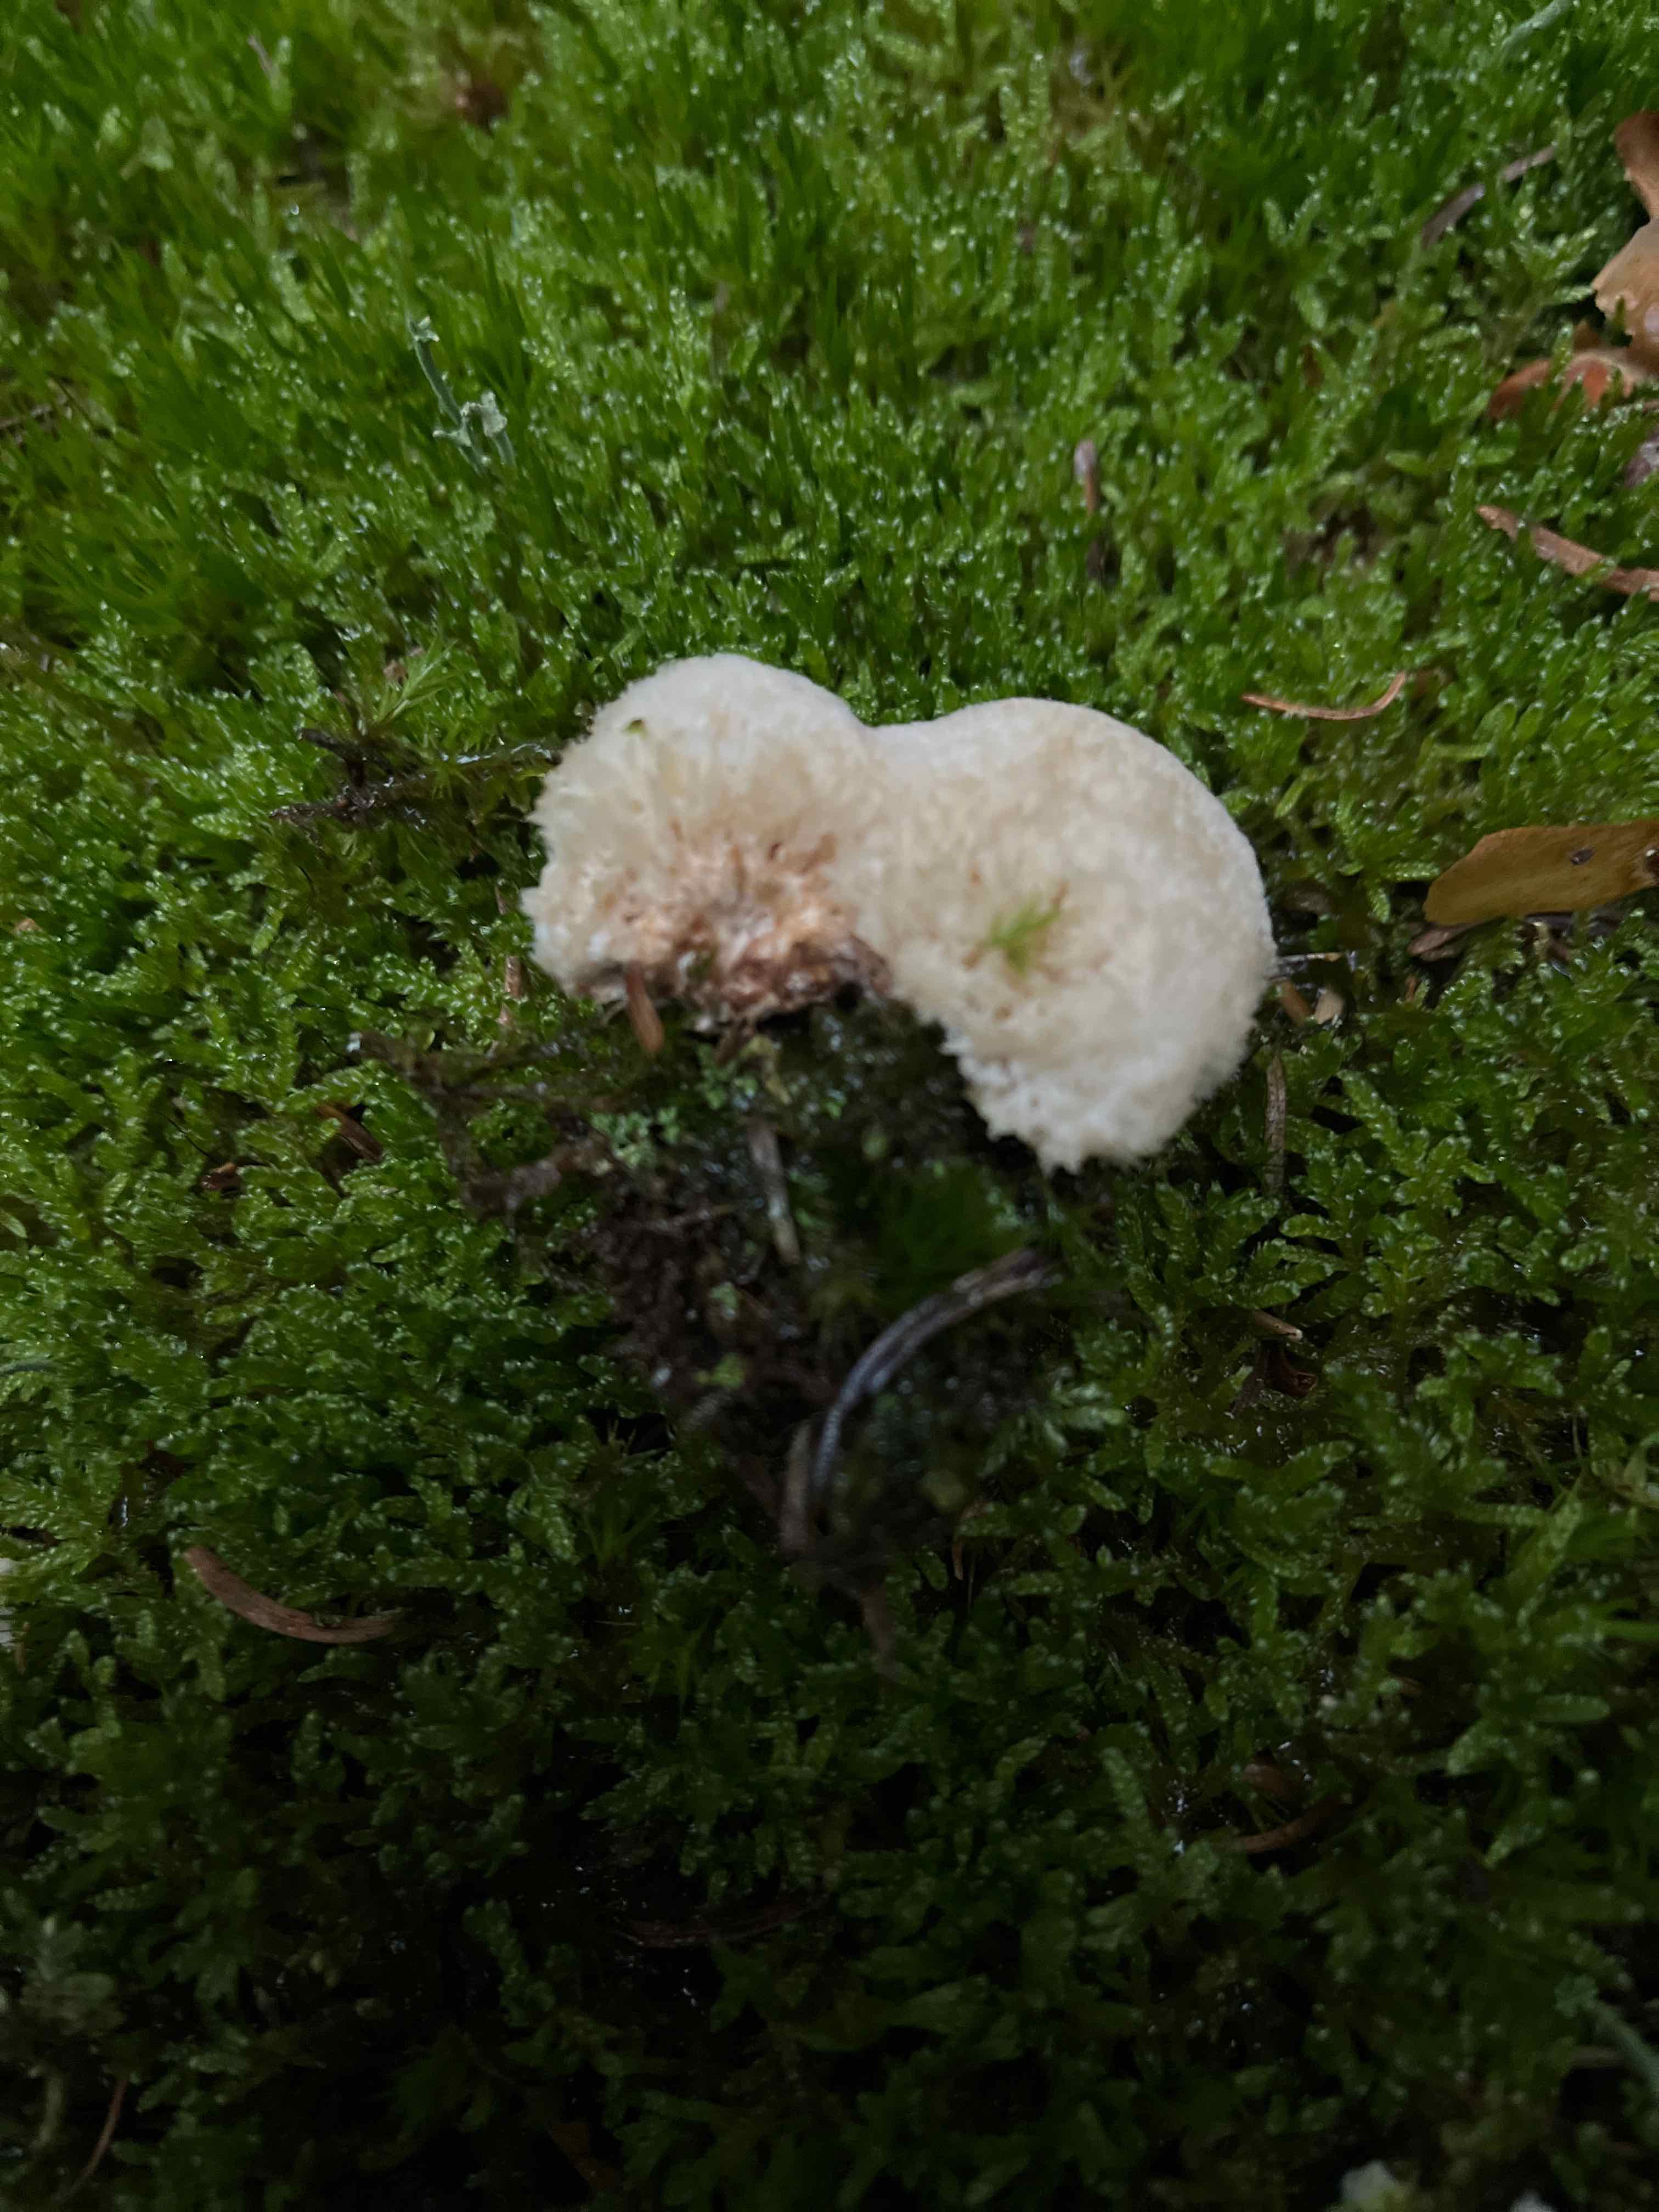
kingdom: Fungi
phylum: Basidiomycota
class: Agaricomycetes
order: Polyporales
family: Dacryobolaceae
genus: Postia
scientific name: Postia ptychogaster
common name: støvende kødporesvamp
